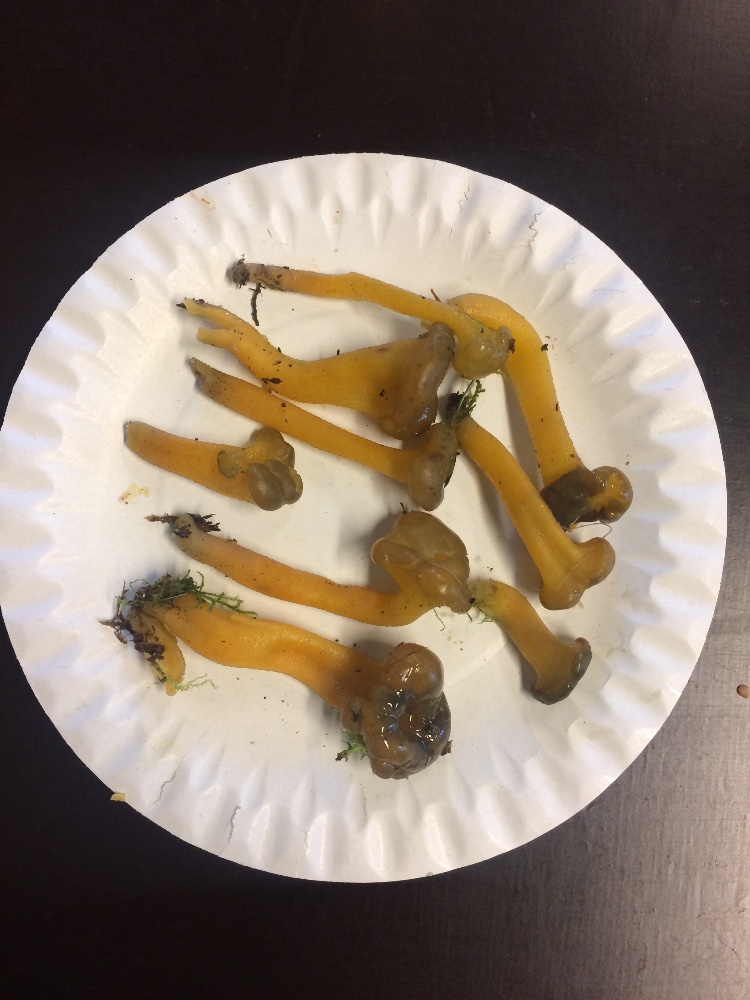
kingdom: Fungi
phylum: Ascomycota
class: Leotiomycetes
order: Leotiales
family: Leotiaceae
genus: Leotia
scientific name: Leotia lubrica
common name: ravsvamp
